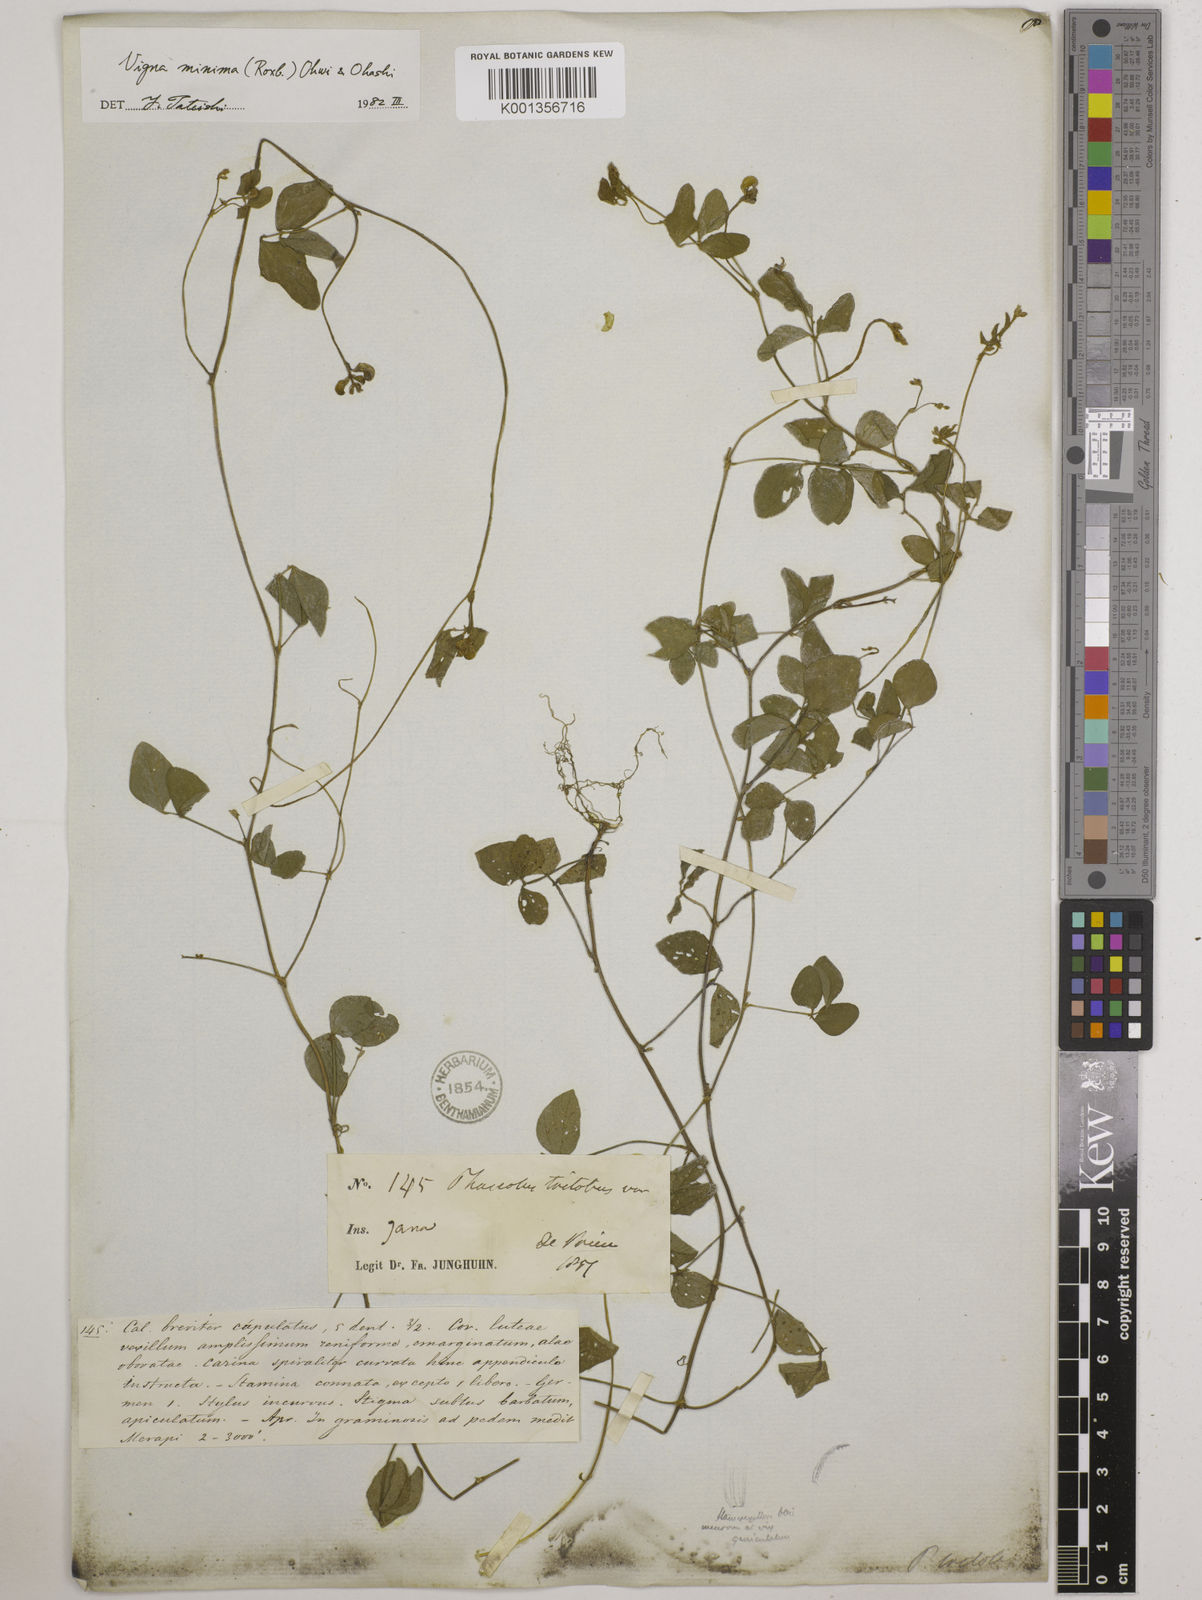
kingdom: Plantae
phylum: Tracheophyta
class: Magnoliopsida
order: Fabales
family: Fabaceae
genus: Vigna
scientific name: Vigna minima
